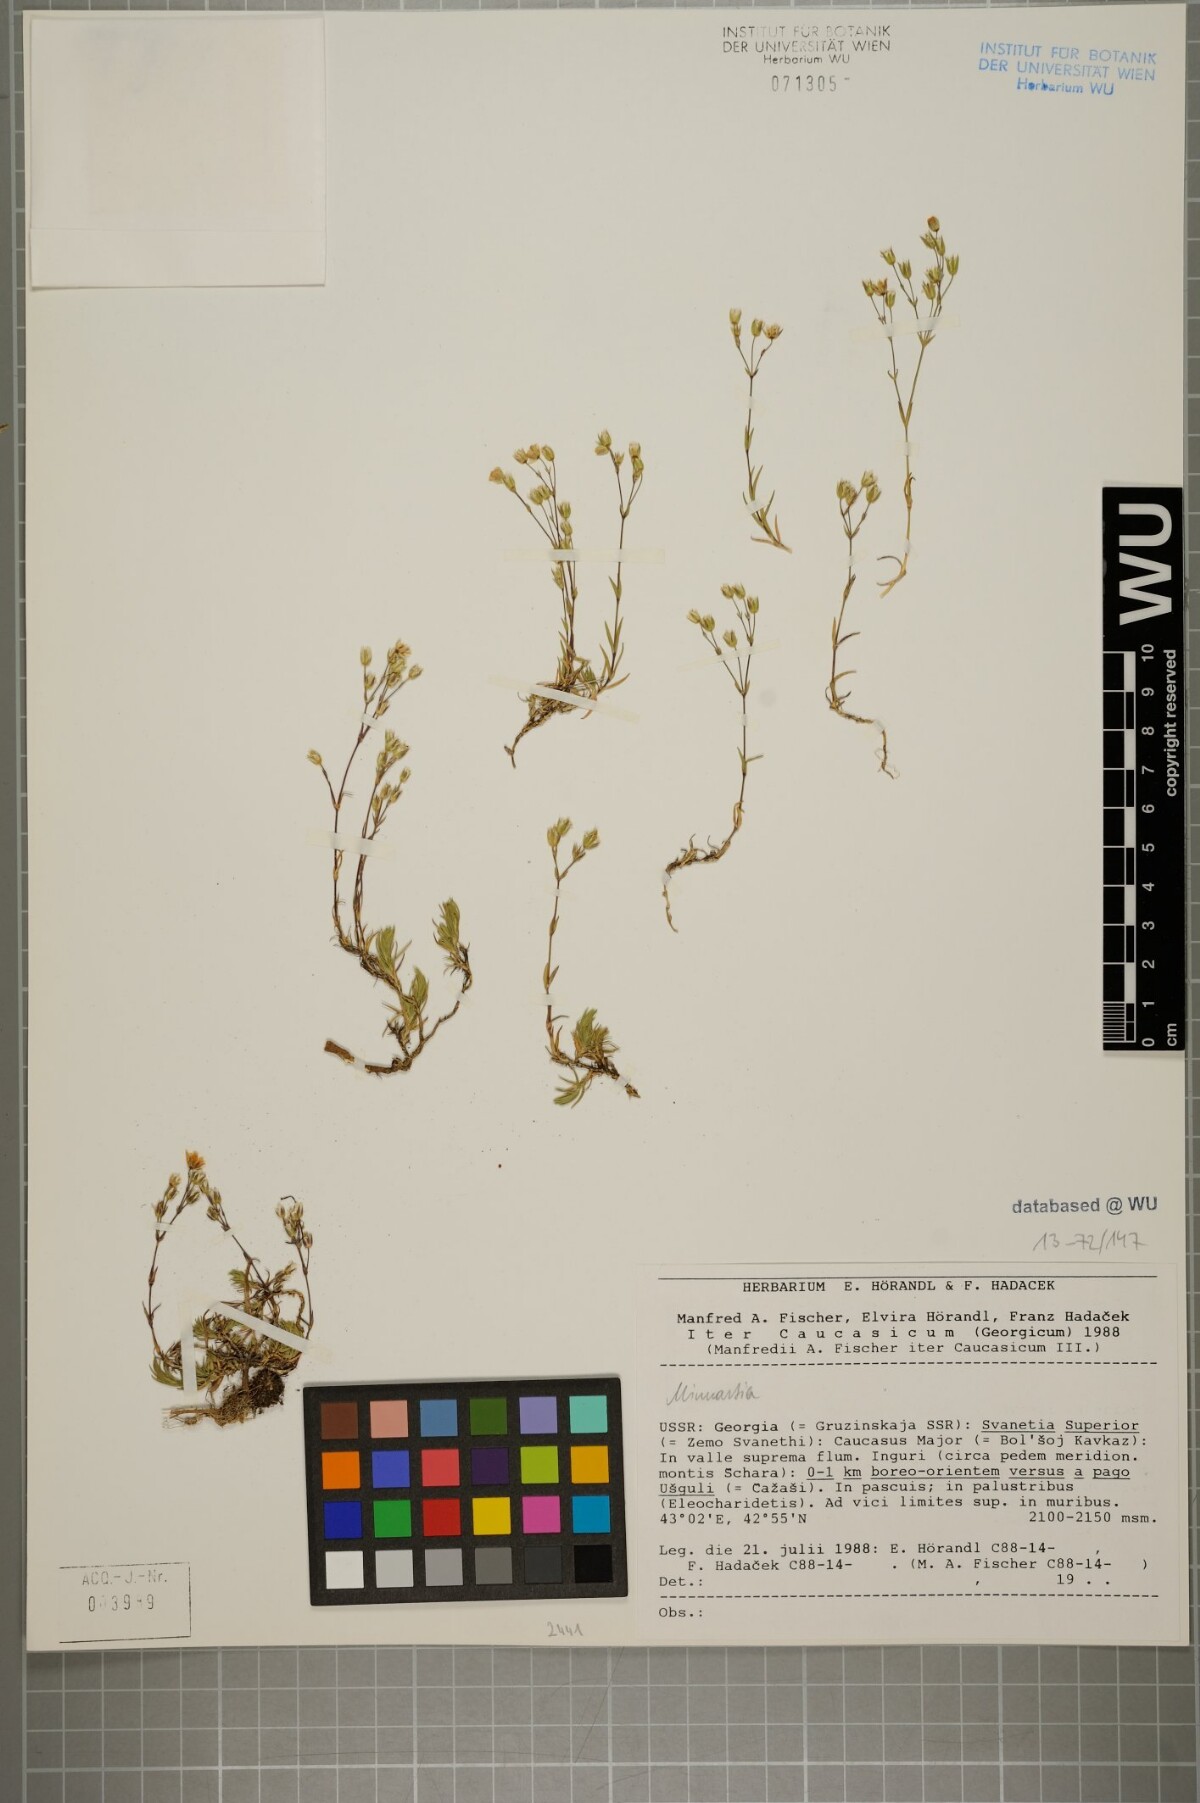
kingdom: Plantae
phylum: Tracheophyta
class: Magnoliopsida
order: Caryophyllales
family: Caryophyllaceae
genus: Minuartia
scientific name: Minuartia hirsuta
